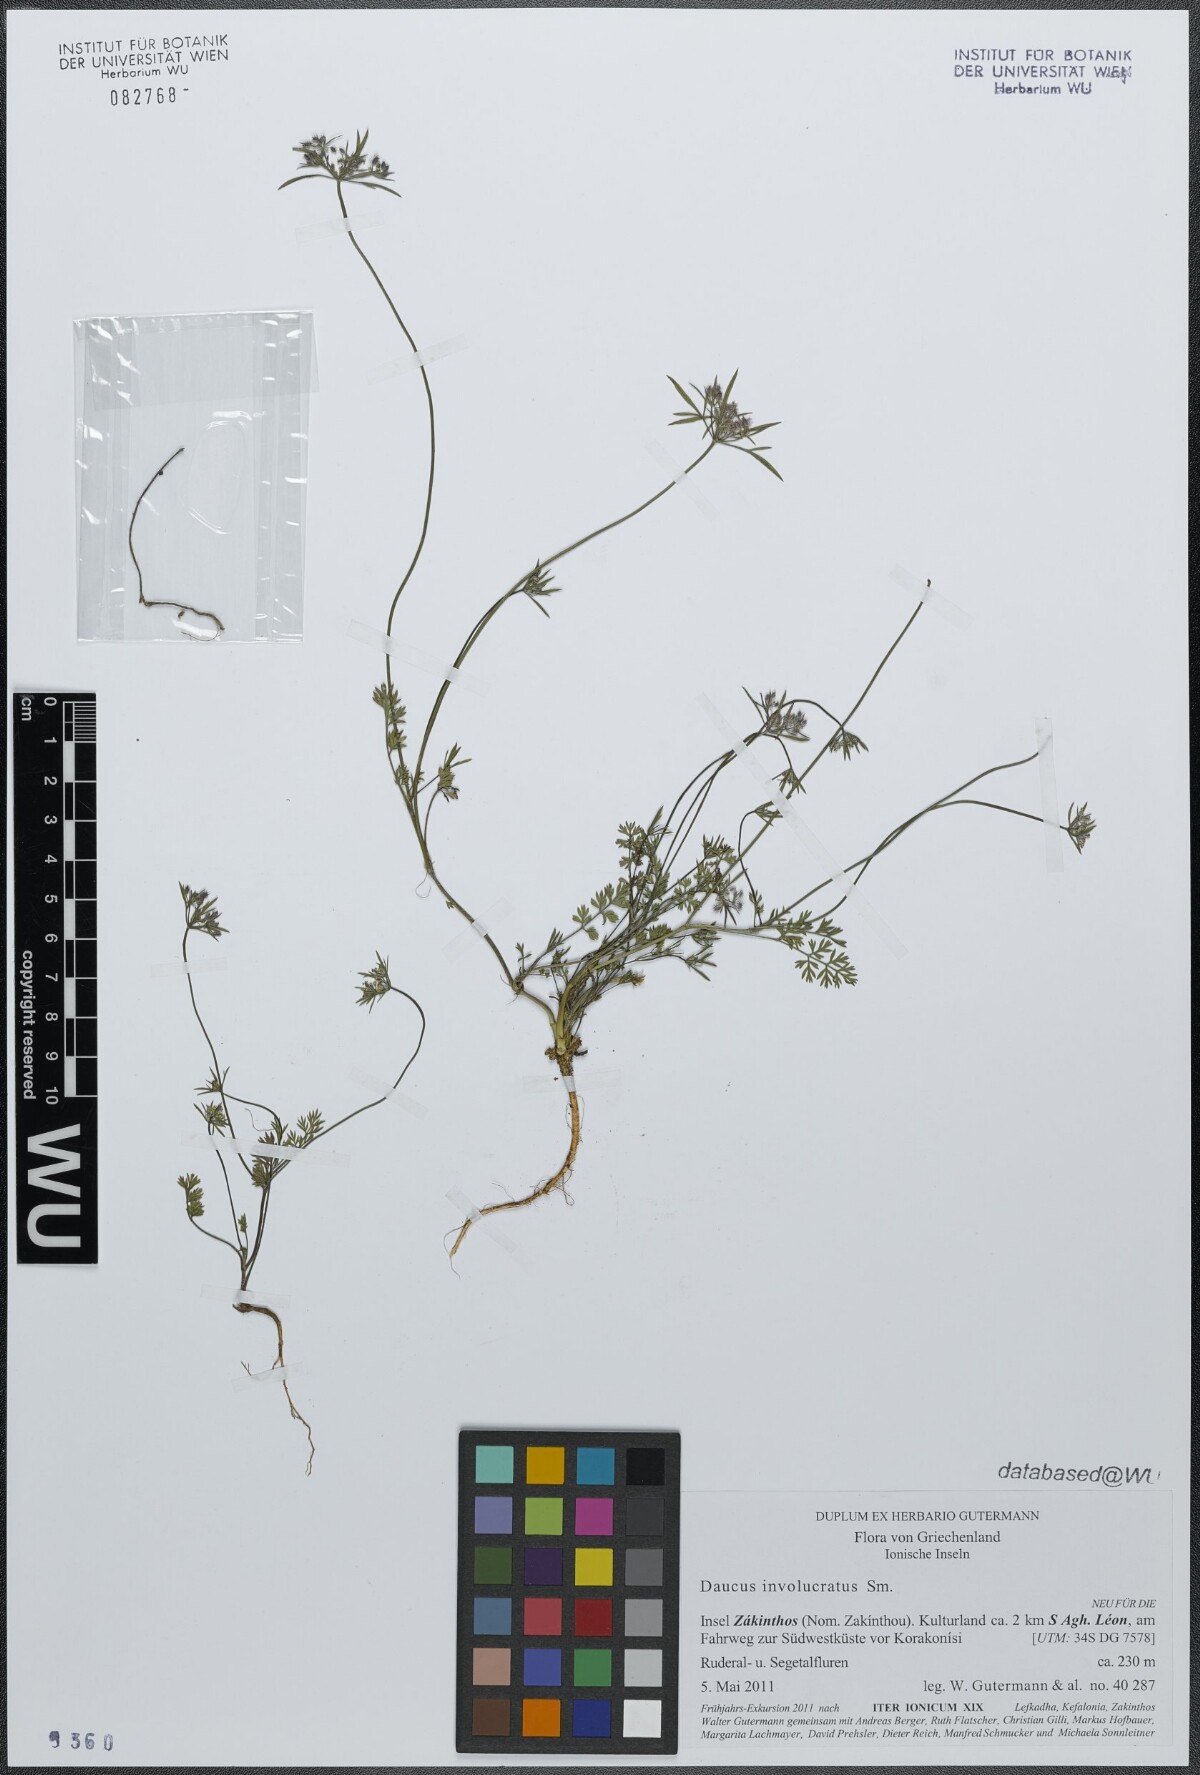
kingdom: Plantae
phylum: Tracheophyta
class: Magnoliopsida
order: Apiales
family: Apiaceae
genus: Daucus
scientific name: Daucus involucratus
